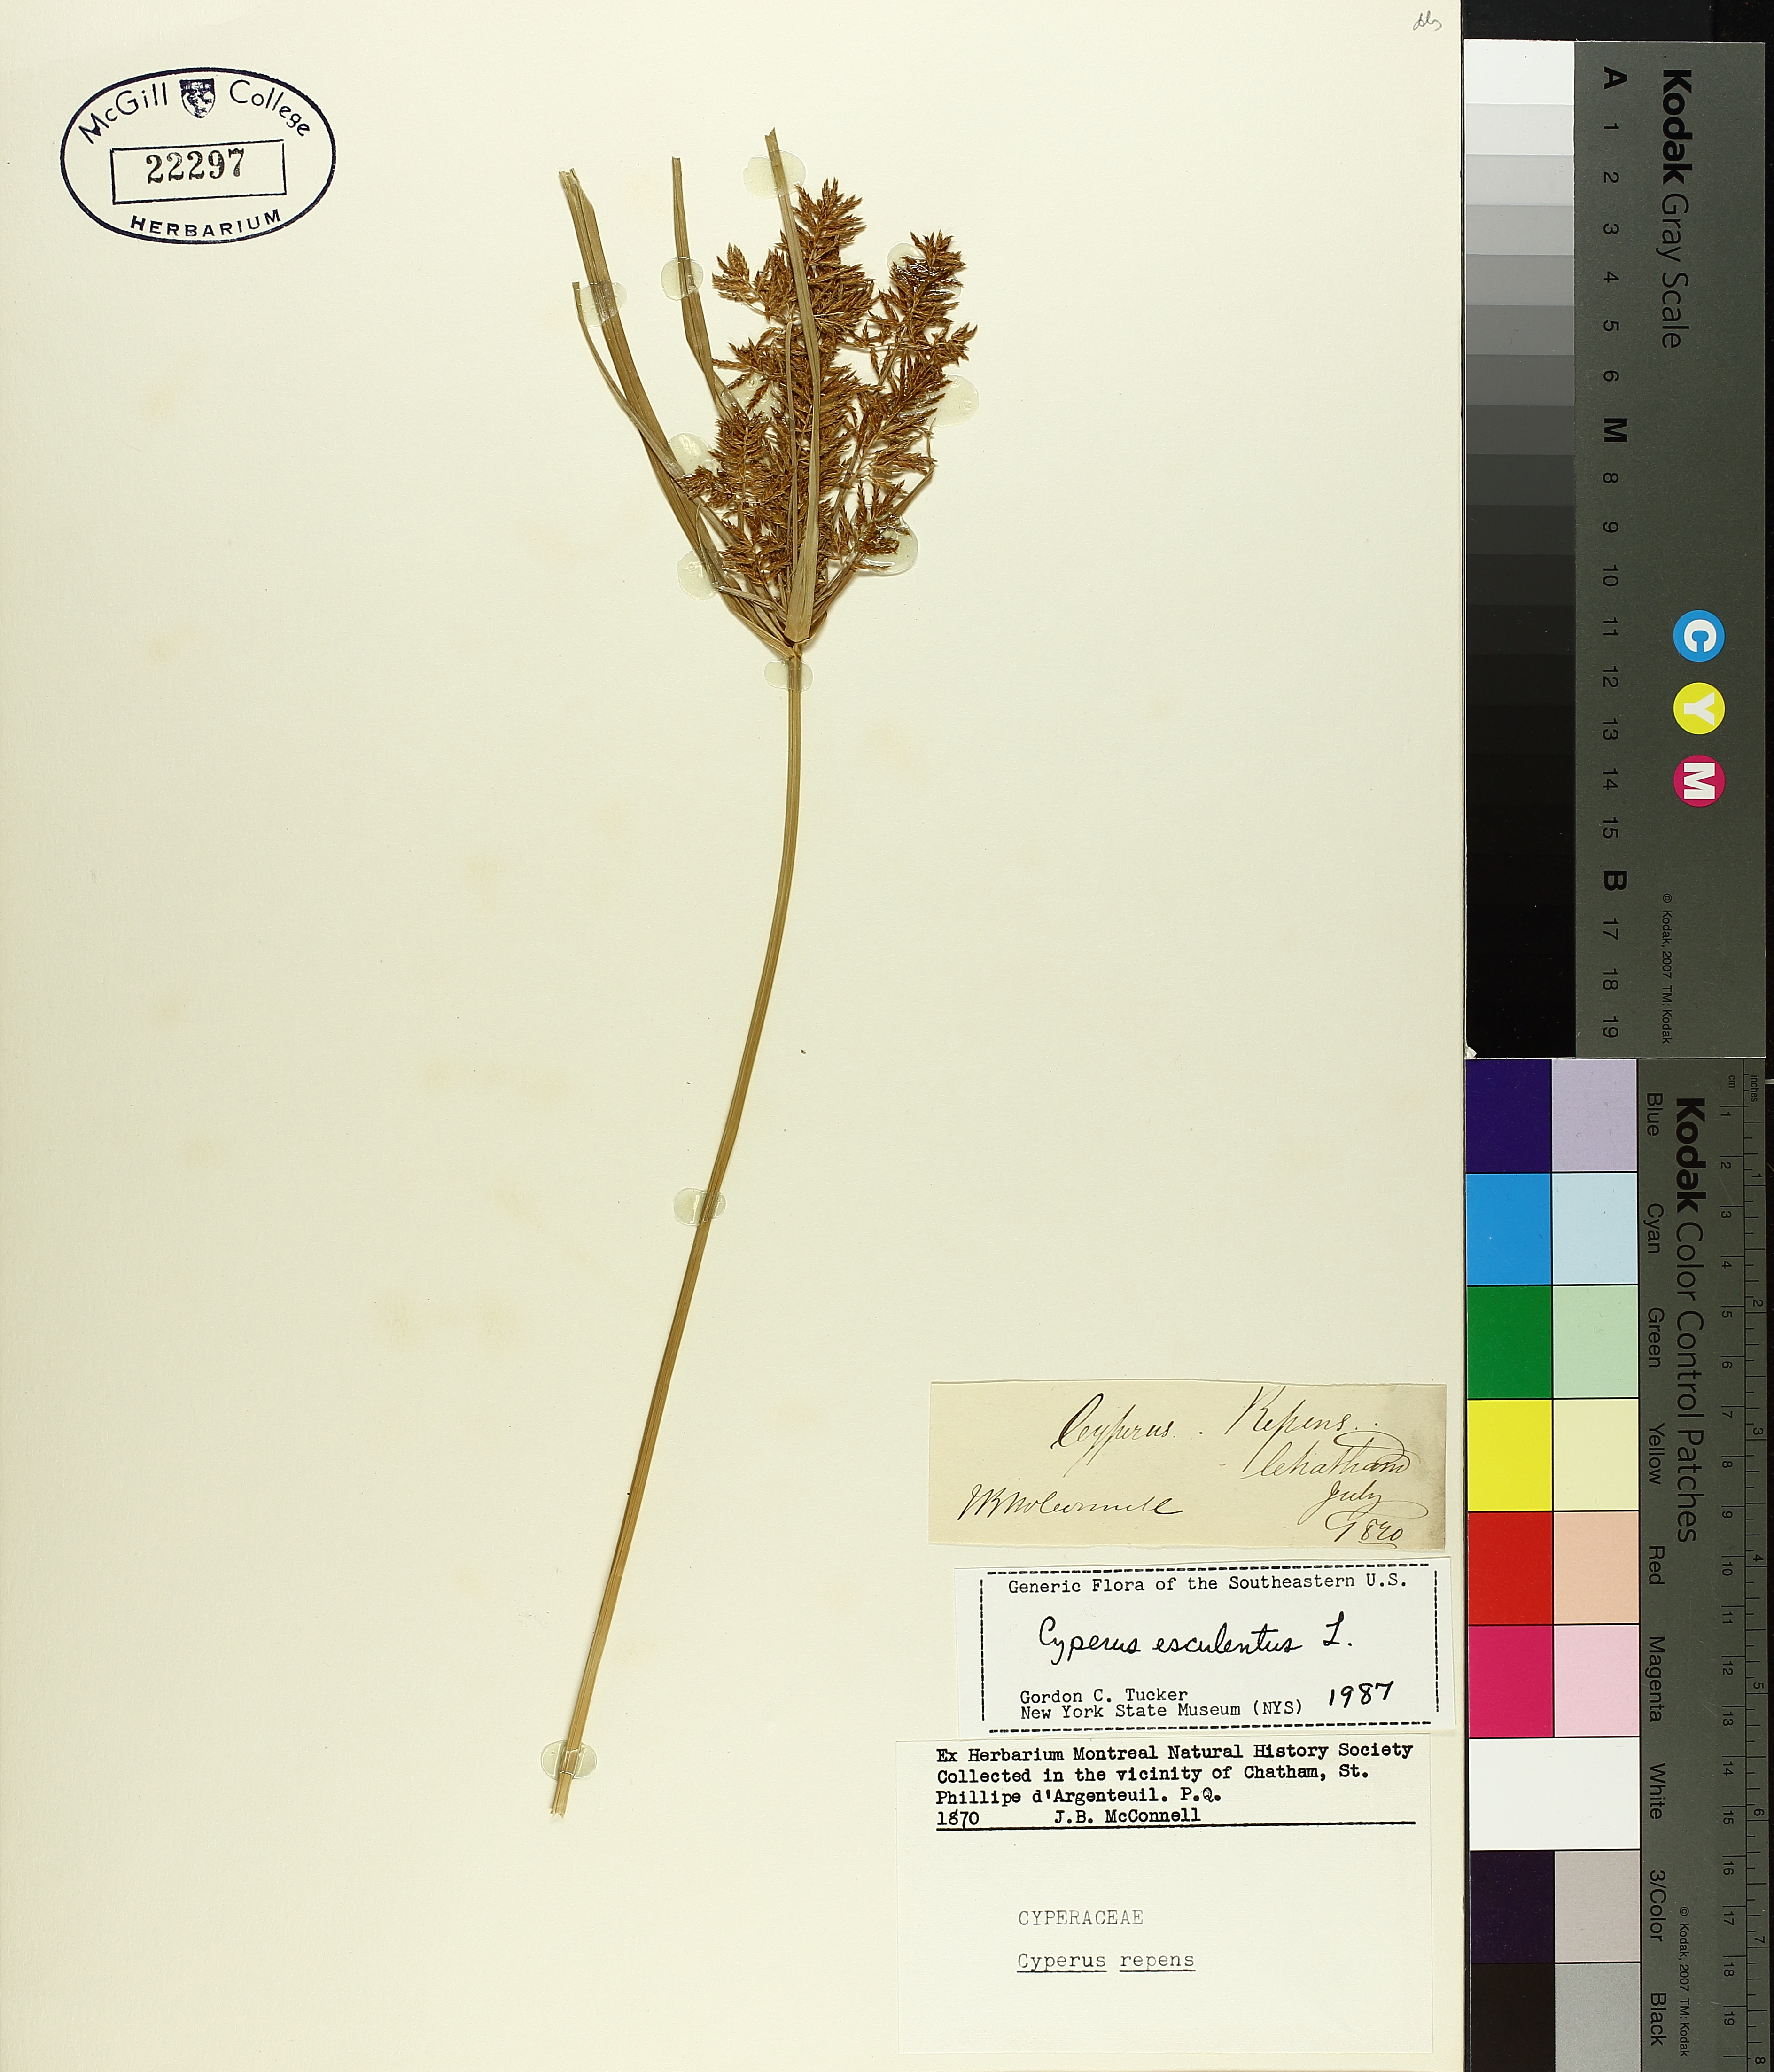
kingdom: Plantae
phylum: Tracheophyta
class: Liliopsida
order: Poales
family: Cyperaceae
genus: Cyperus
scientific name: Cyperus esculentus
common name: Yellow nutsedge
